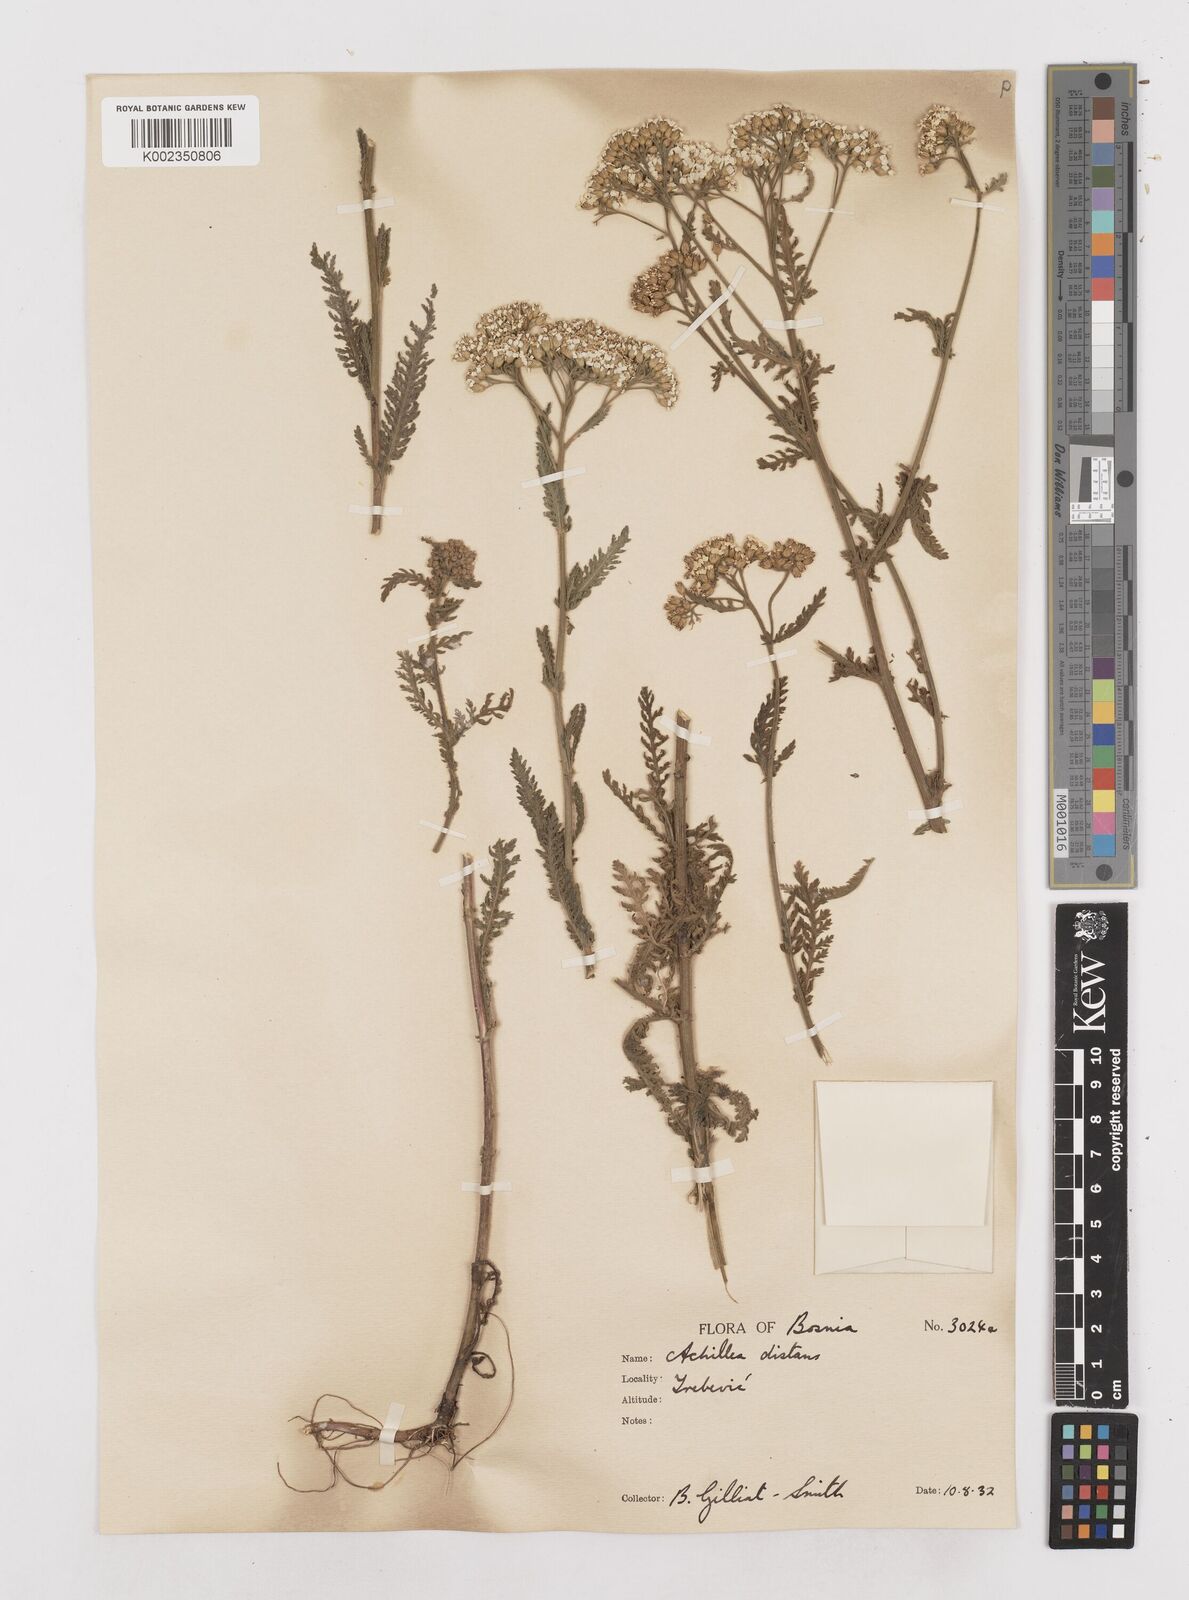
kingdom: Plantae
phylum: Tracheophyta
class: Magnoliopsida
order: Asterales
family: Asteraceae
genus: Achillea
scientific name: Achillea distans
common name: Tall yarrow
